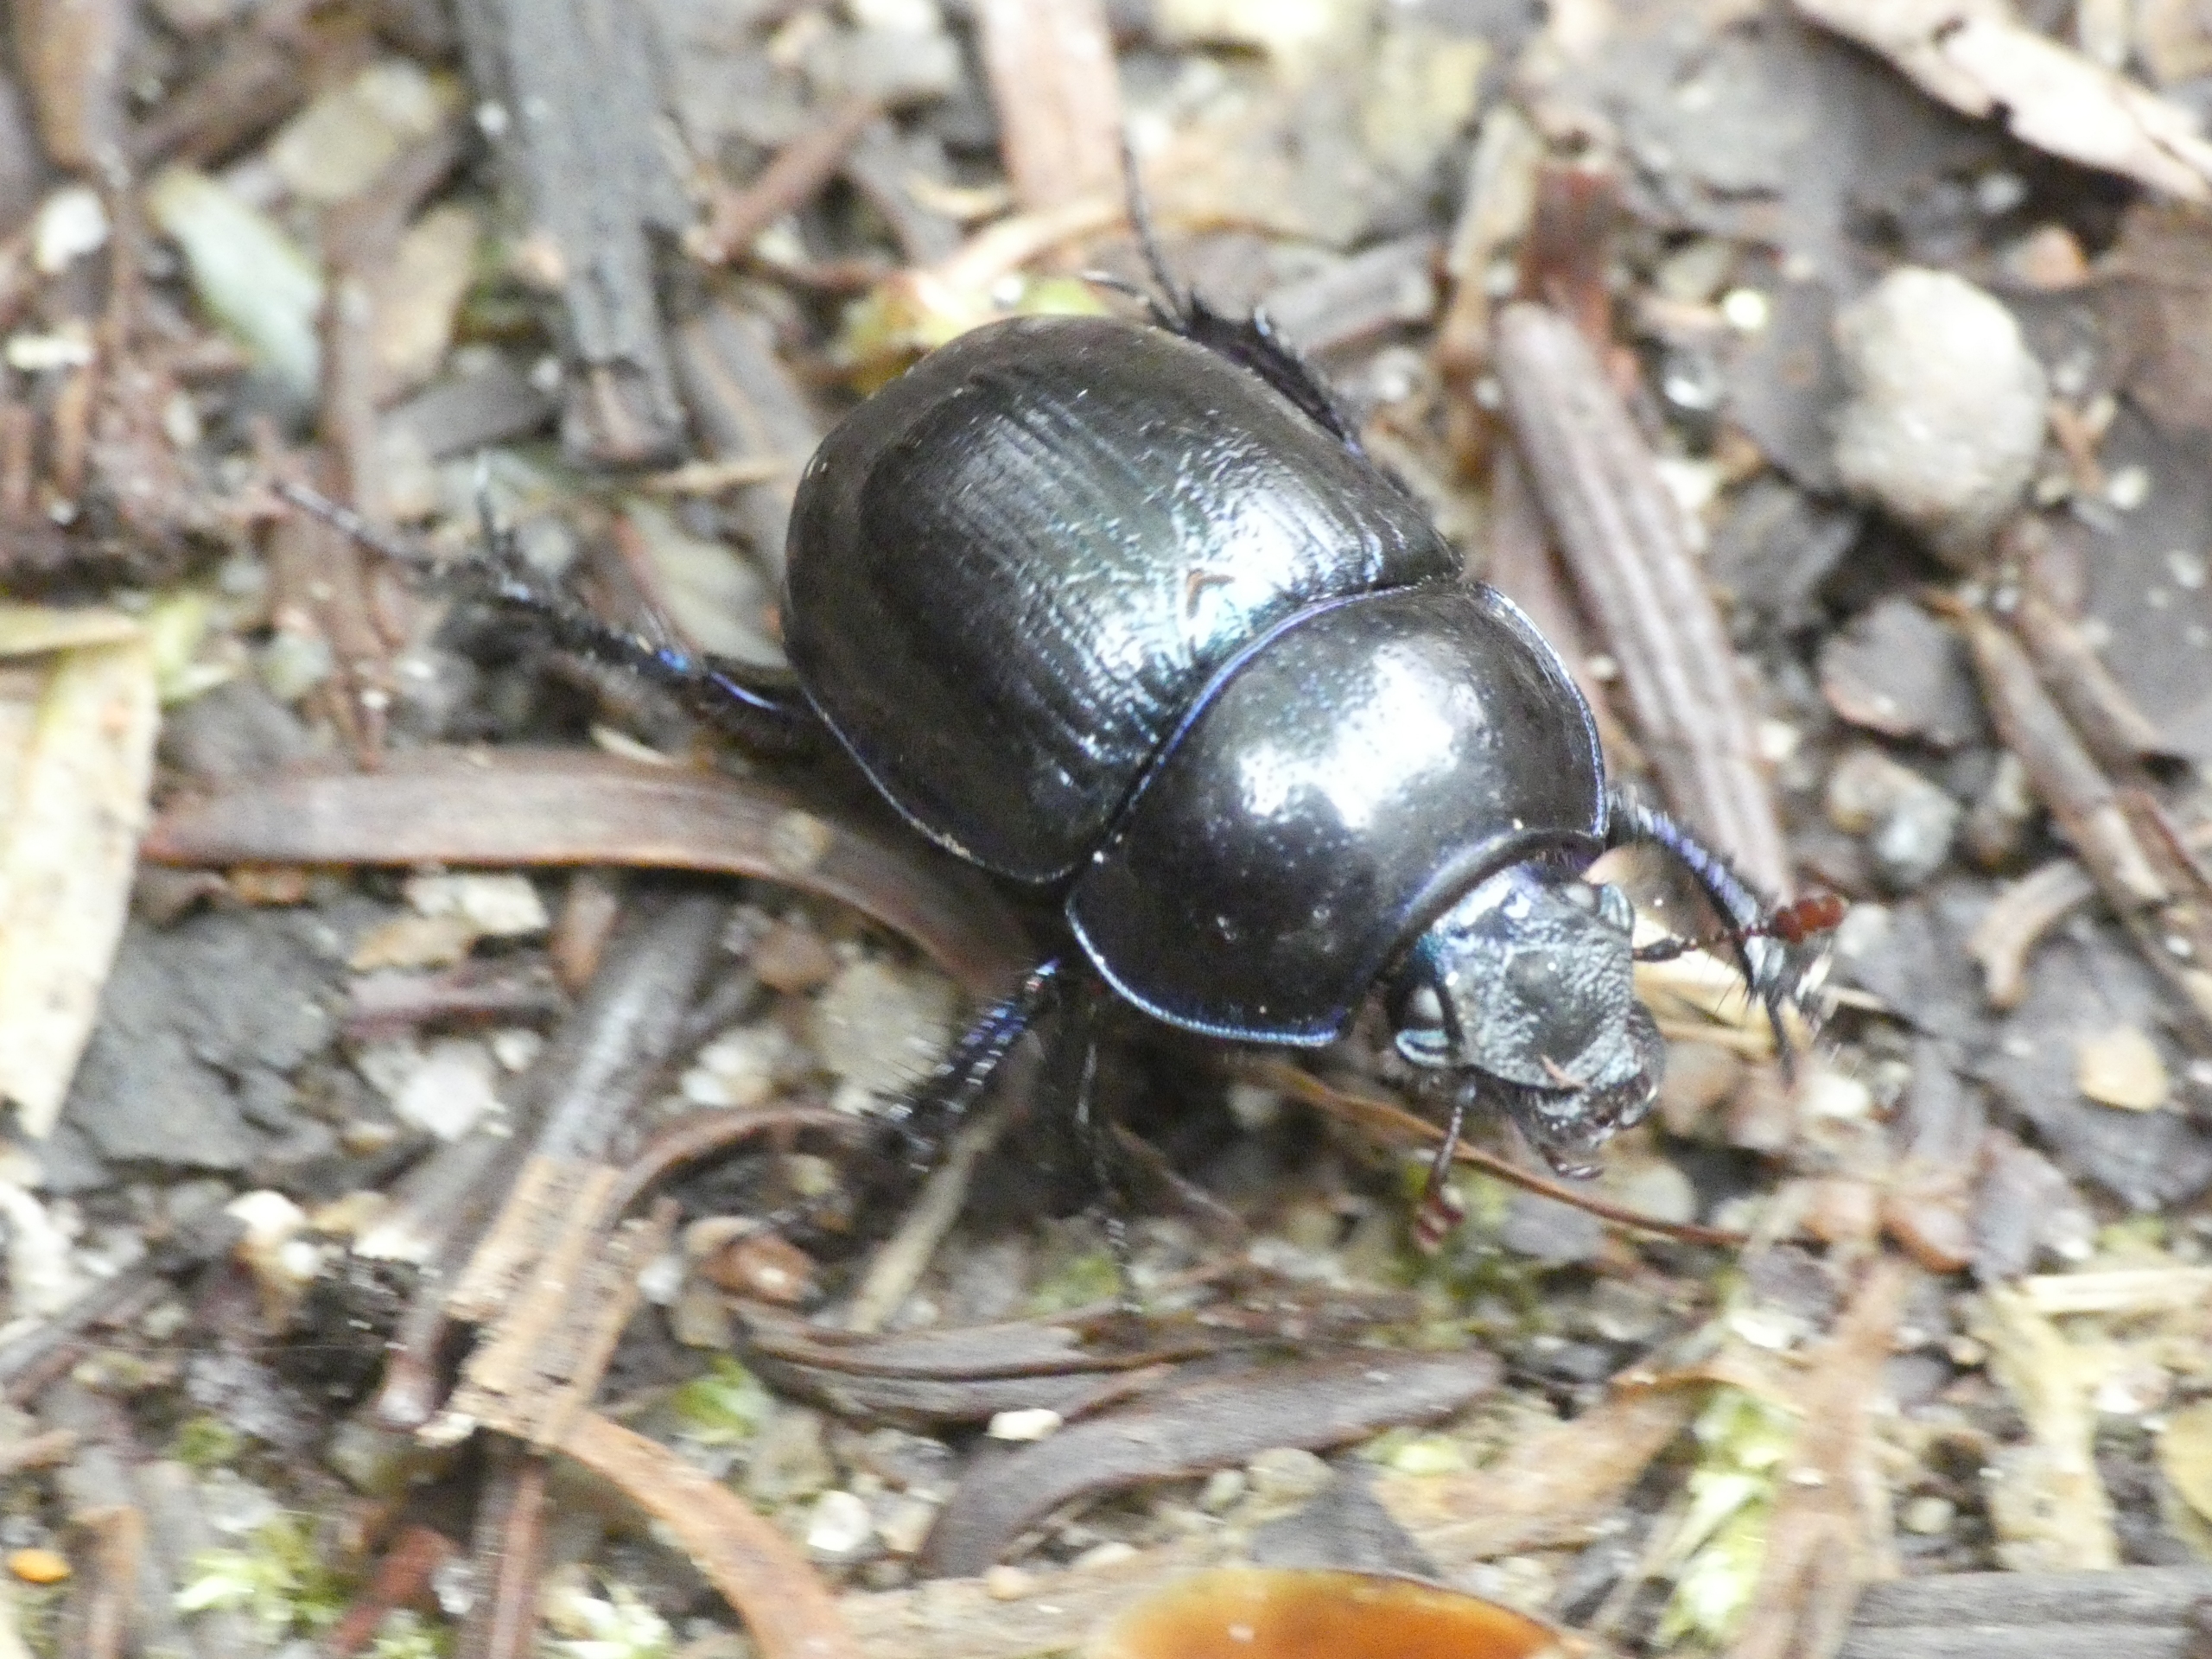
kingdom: Animalia
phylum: Arthropoda
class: Insecta
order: Coleoptera
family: Geotrupidae
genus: Anoplotrupes
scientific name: Anoplotrupes stercorosus
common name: Skovskarnbasse
